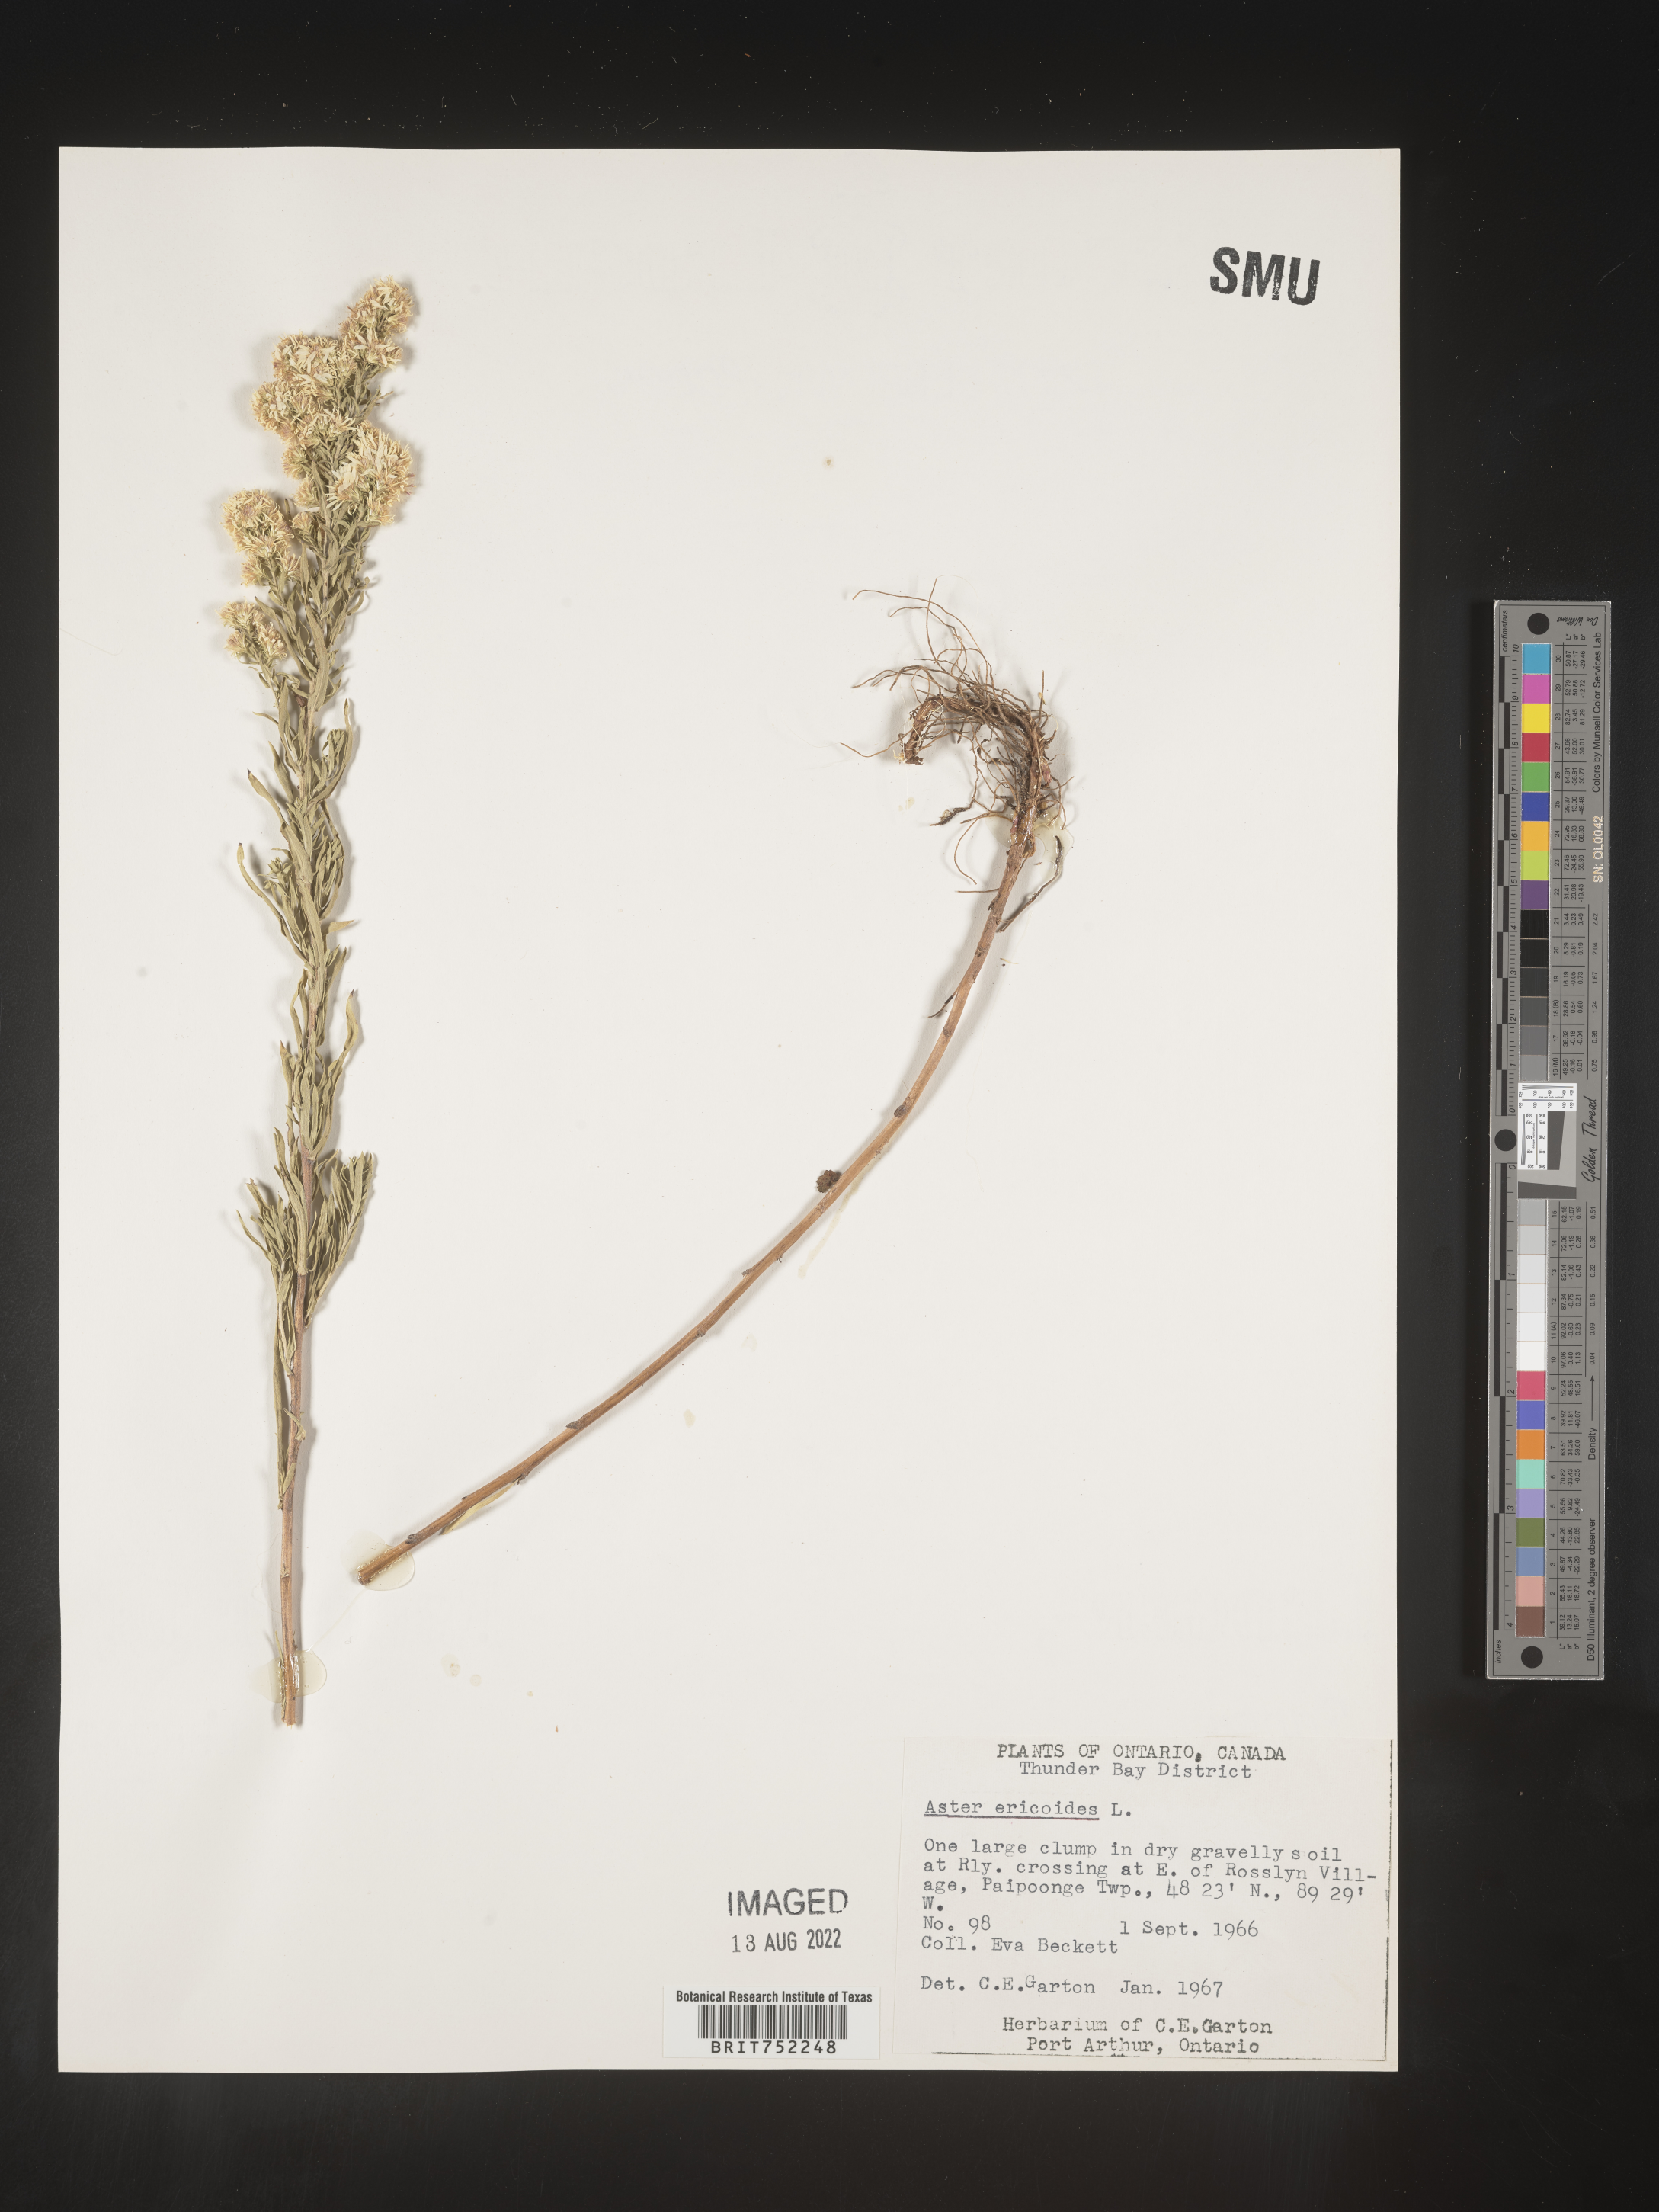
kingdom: Plantae
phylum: Tracheophyta
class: Magnoliopsida
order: Asterales
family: Asteraceae
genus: Symphyotrichum
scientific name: Symphyotrichum ericoides
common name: Heath aster
